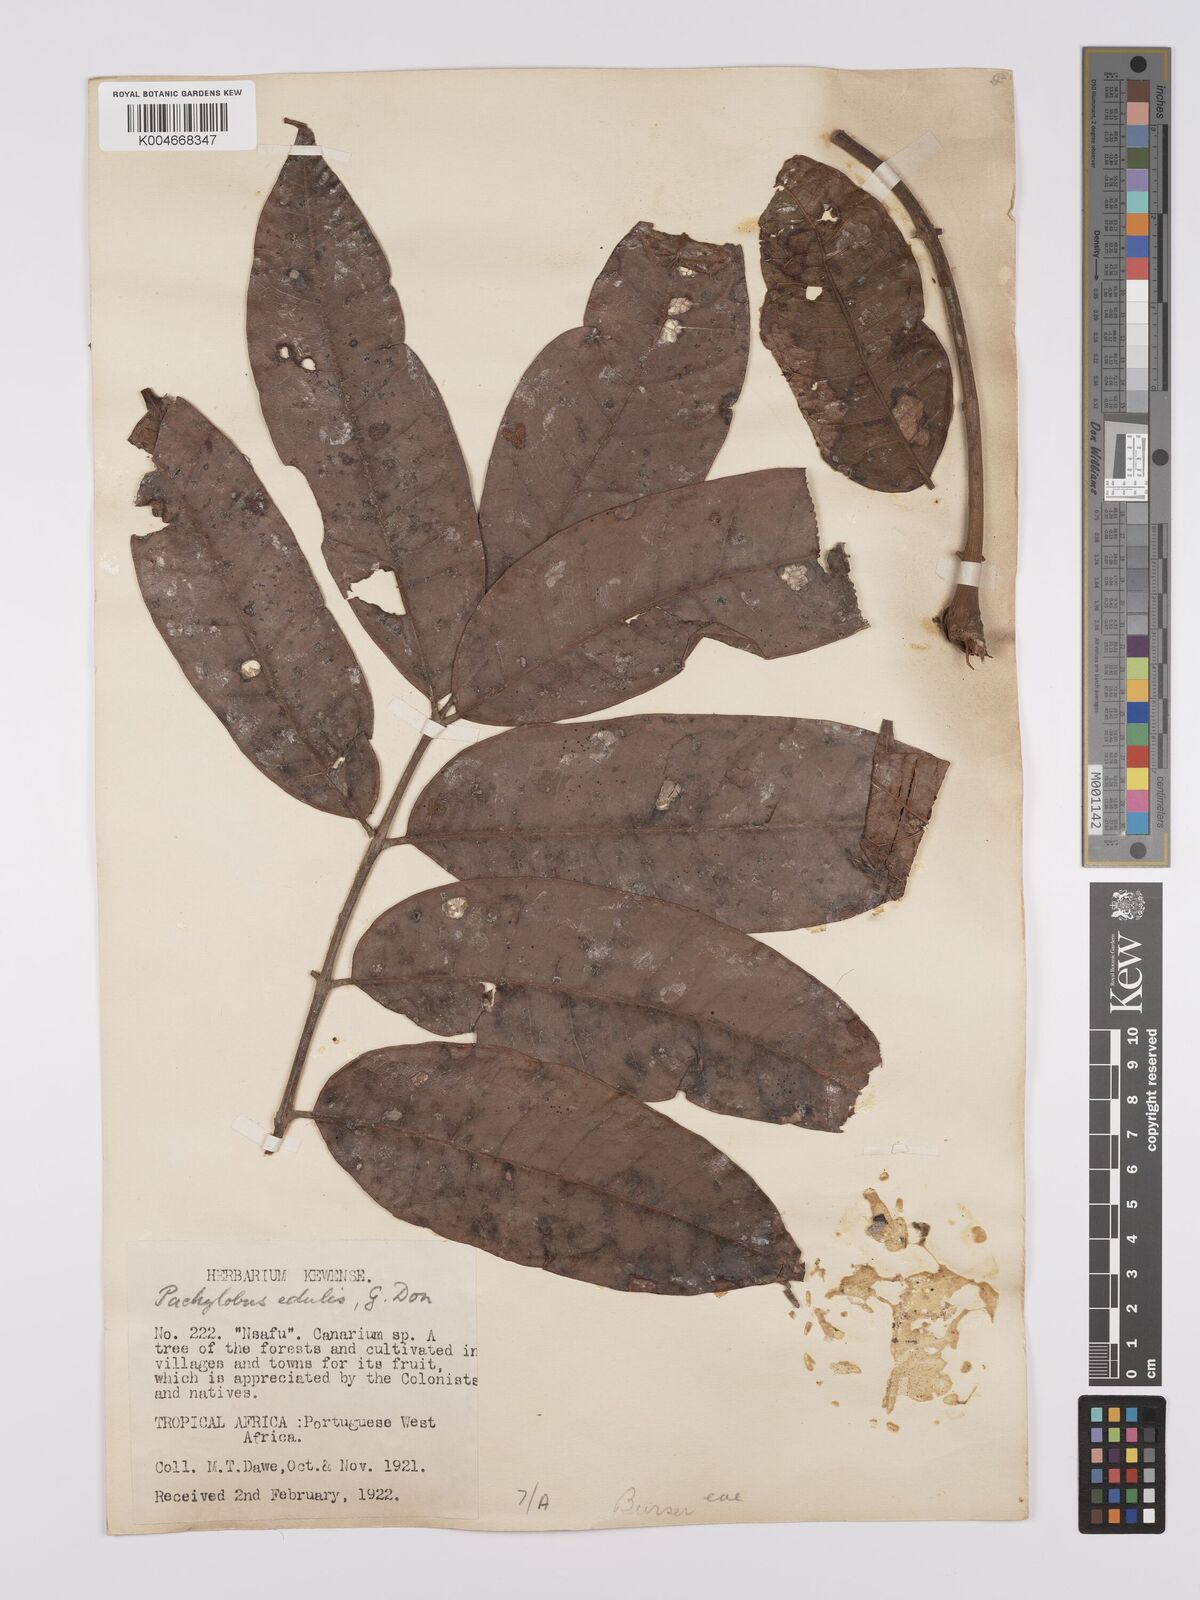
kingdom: Plantae
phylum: Tracheophyta
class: Magnoliopsida
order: Sapindales
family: Burseraceae
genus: Pachylobus
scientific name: Pachylobus edulis
